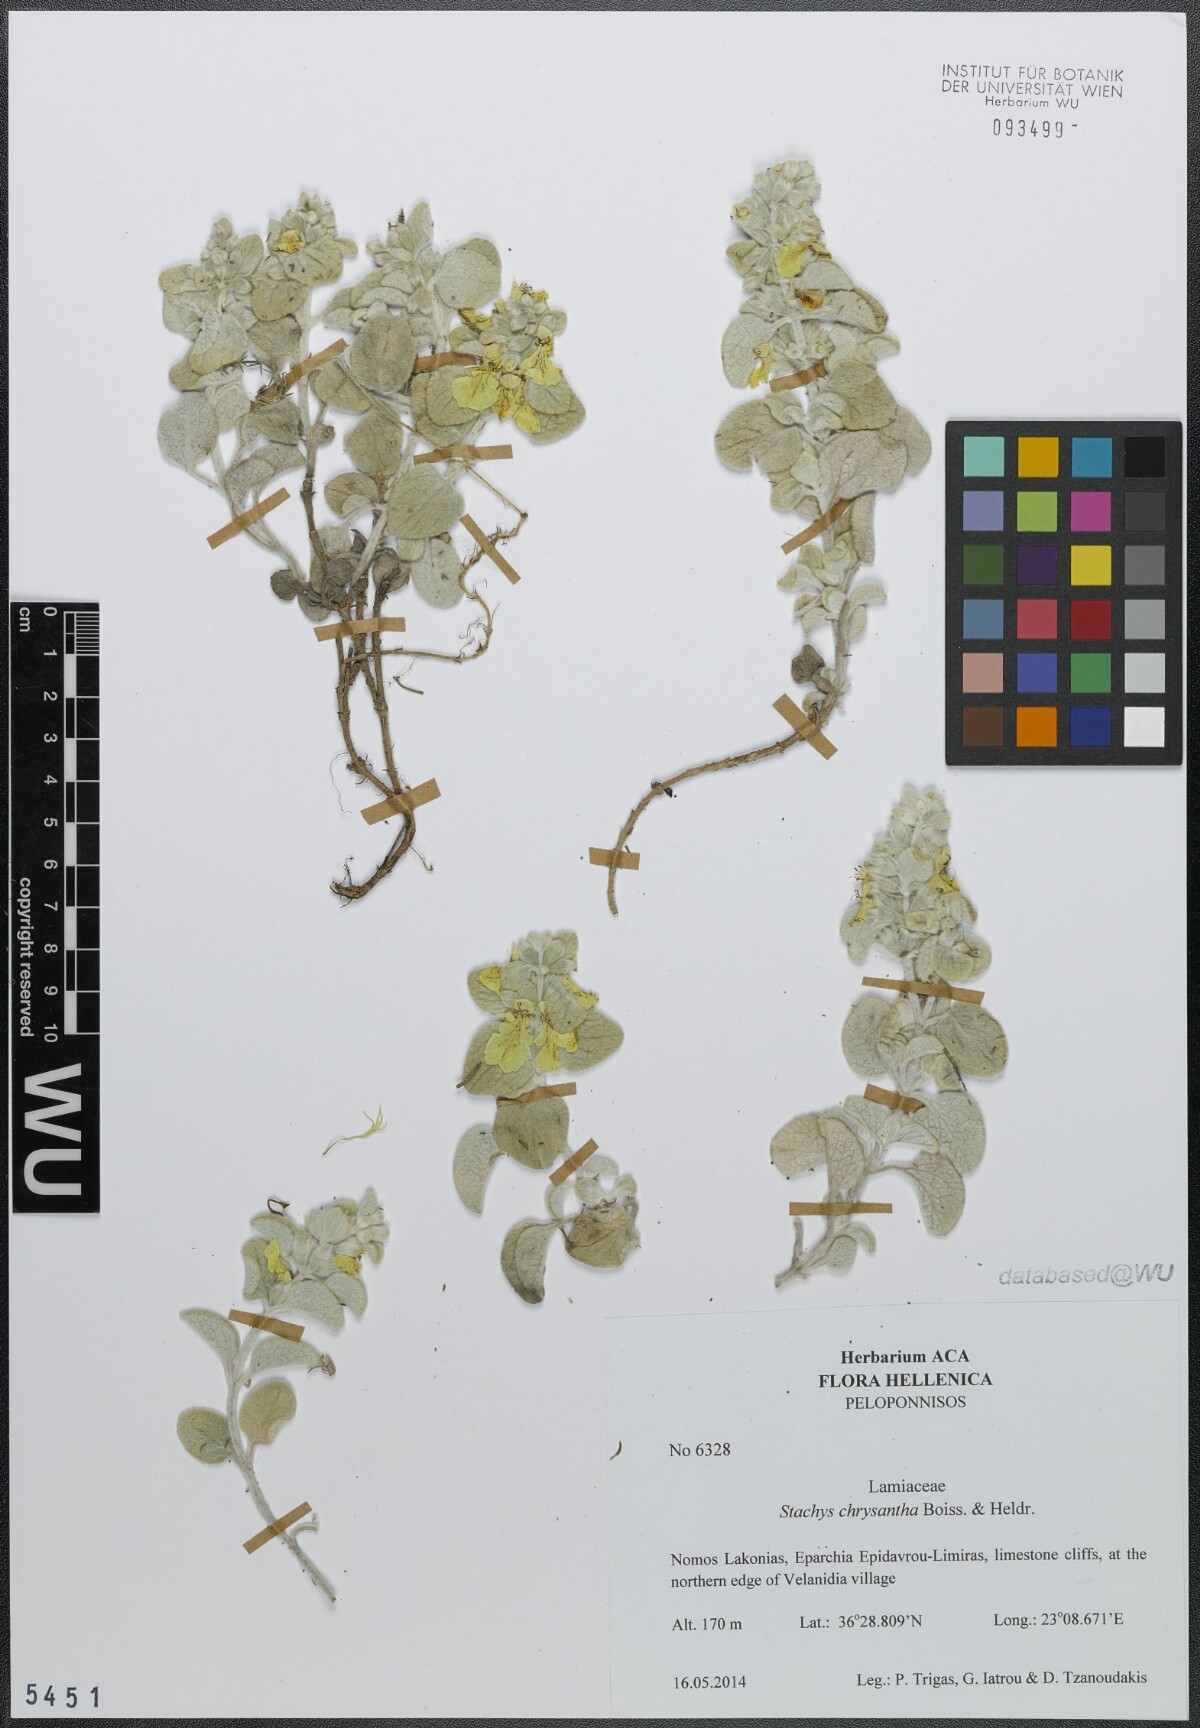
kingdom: Plantae
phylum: Tracheophyta
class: Magnoliopsida
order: Lamiales
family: Lamiaceae
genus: Stachys
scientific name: Stachys chrysantha
